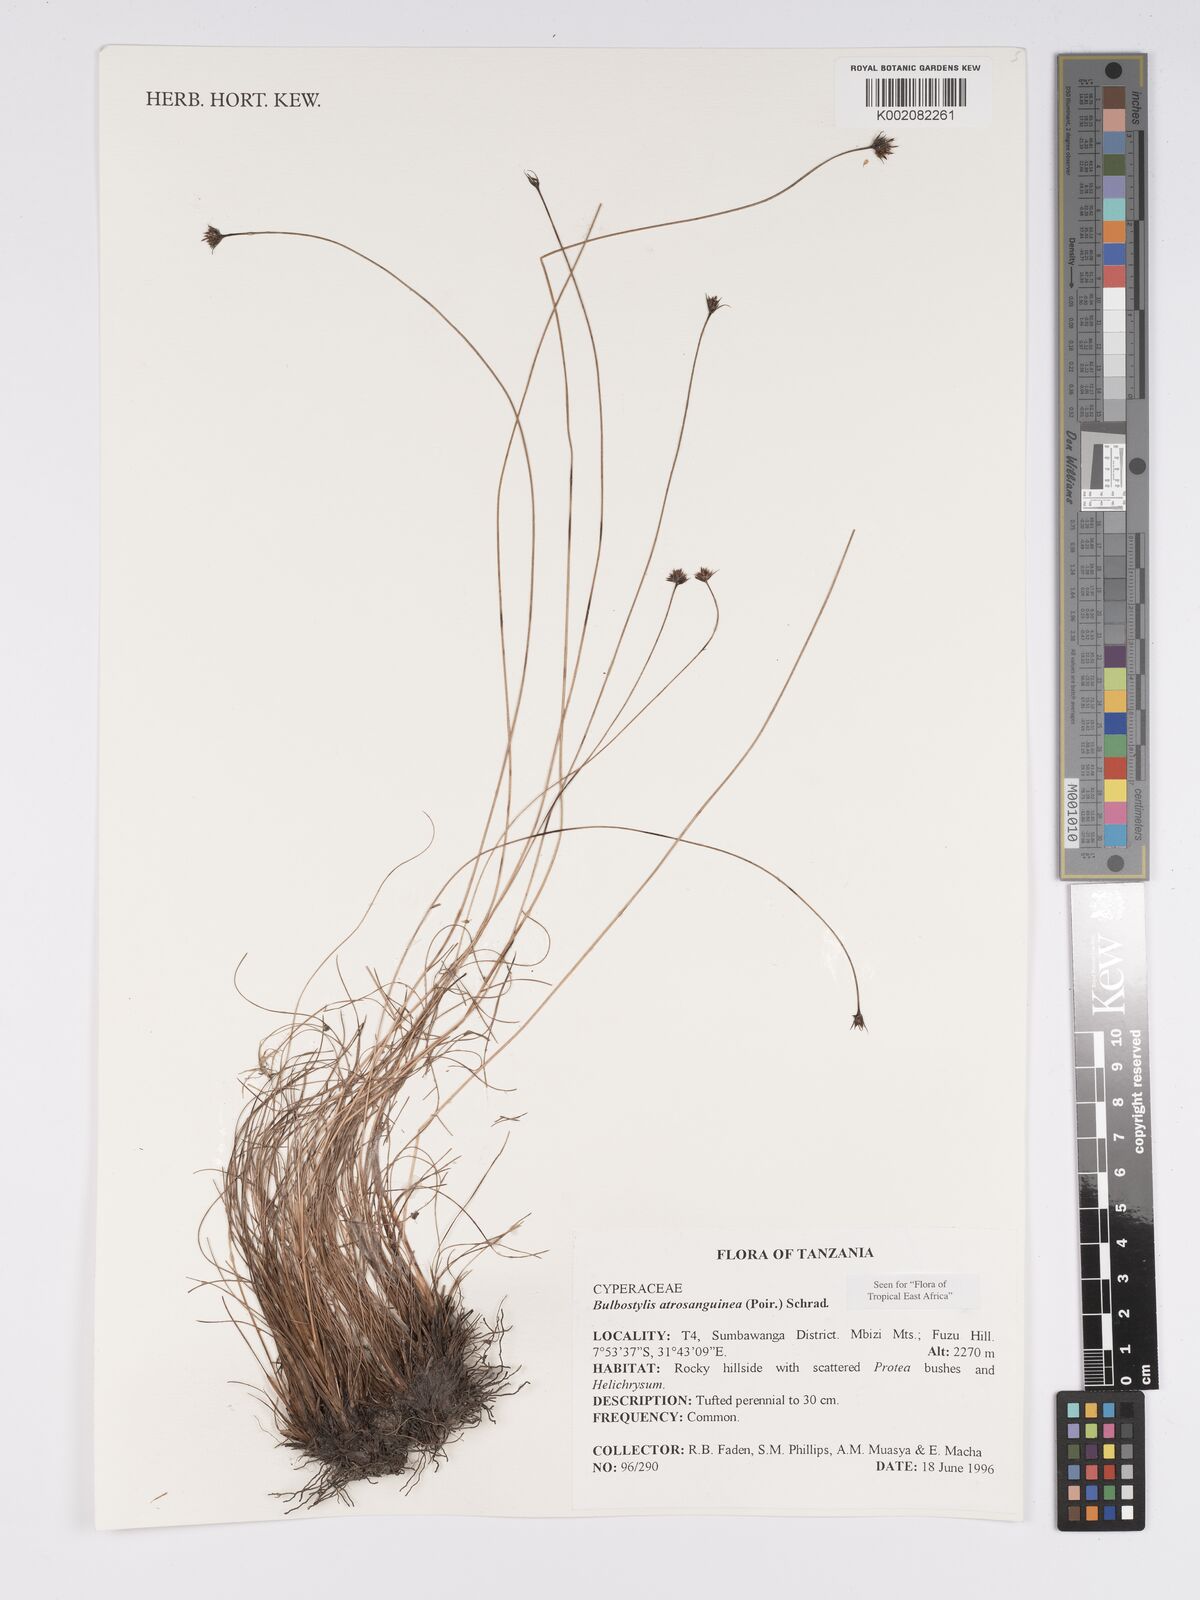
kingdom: Plantae
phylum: Tracheophyta
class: Liliopsida
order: Poales
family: Cyperaceae
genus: Bulbostylis
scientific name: Bulbostylis atrosanguinea
